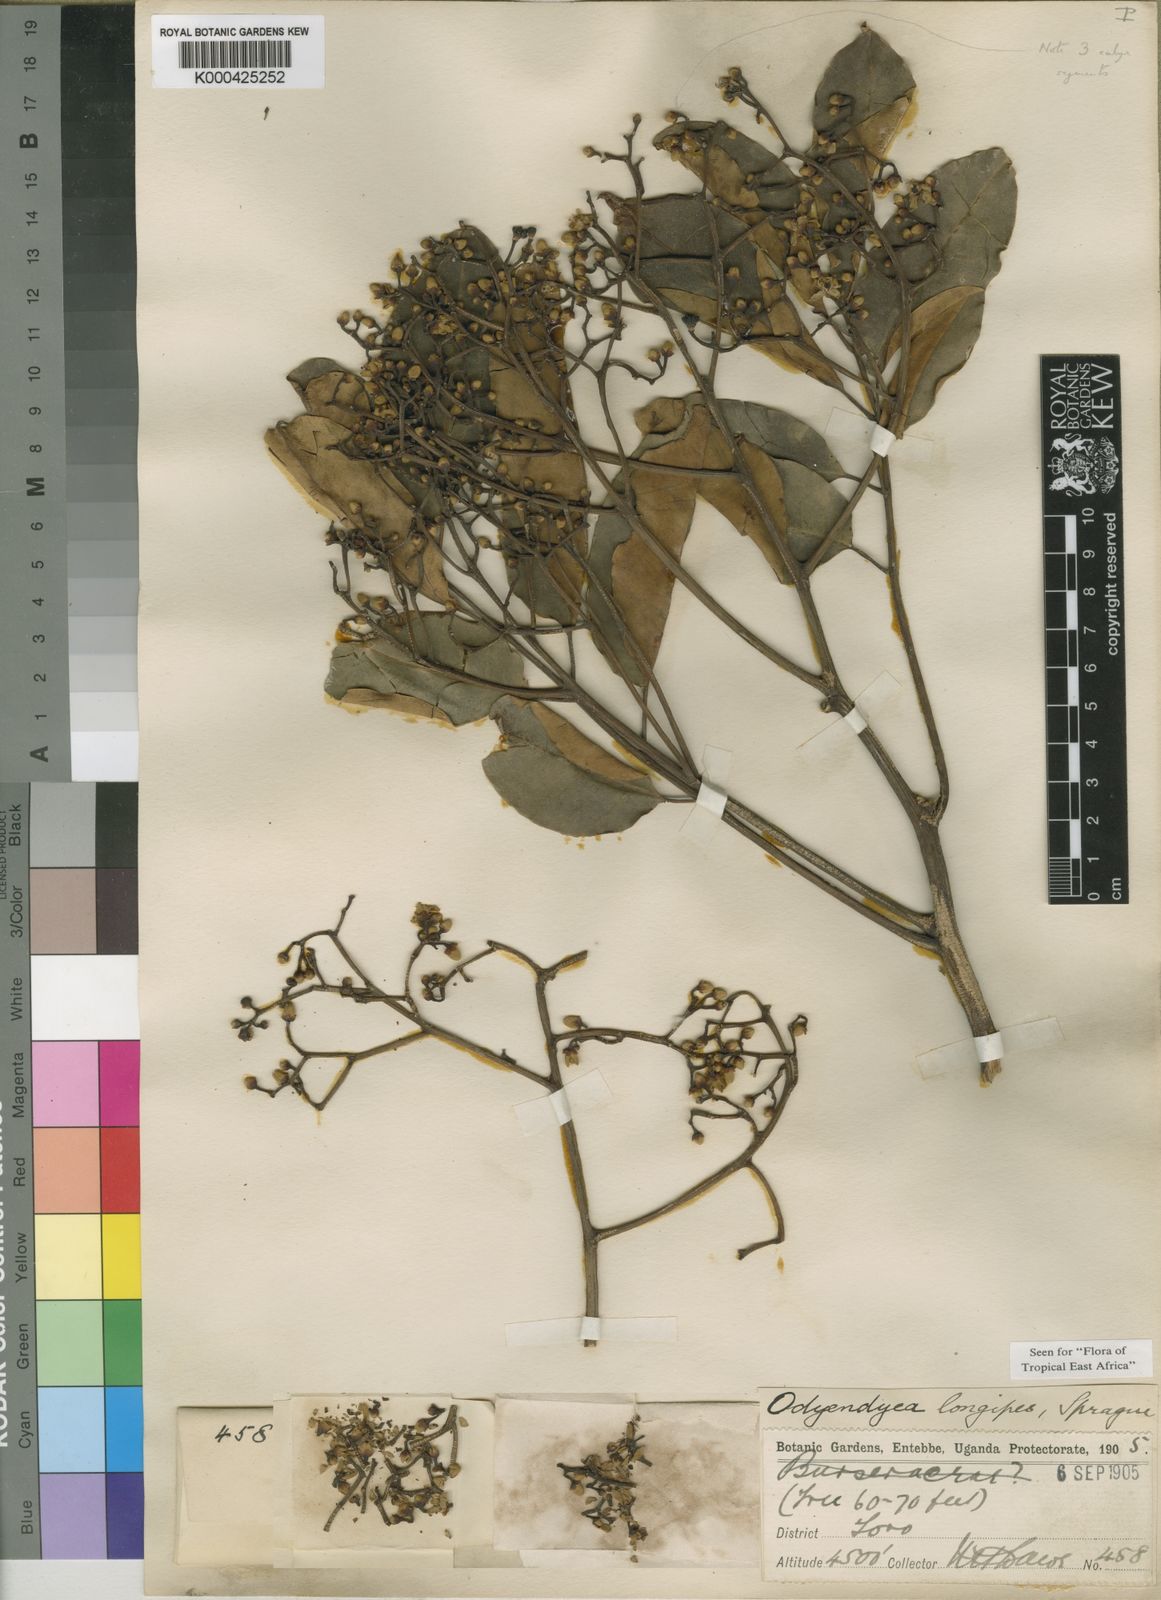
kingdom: Plantae
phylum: Tracheophyta
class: Magnoliopsida
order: Sapindales
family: Simaroubaceae
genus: Odyendyea
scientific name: Odyendyea klaineana
